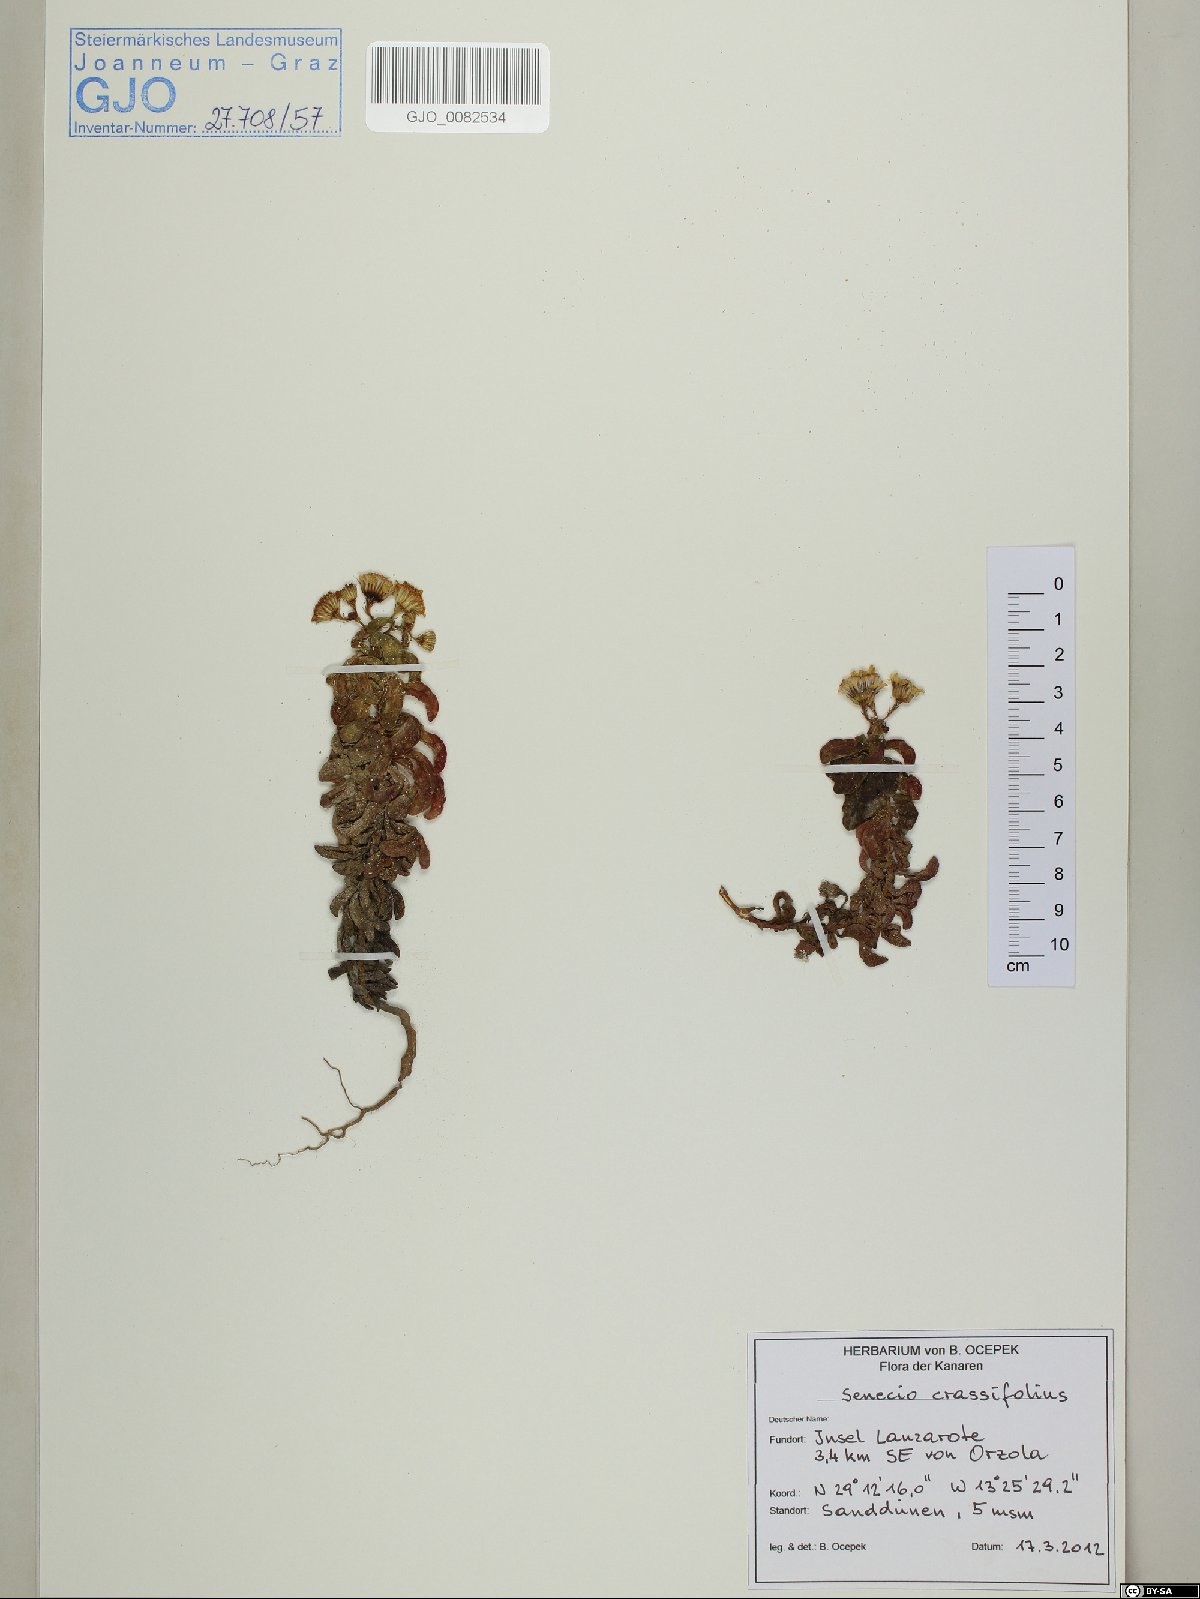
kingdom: Plantae
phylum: Tracheophyta
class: Magnoliopsida
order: Asterales
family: Asteraceae
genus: Senecio
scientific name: Senecio leucanthemifolius
